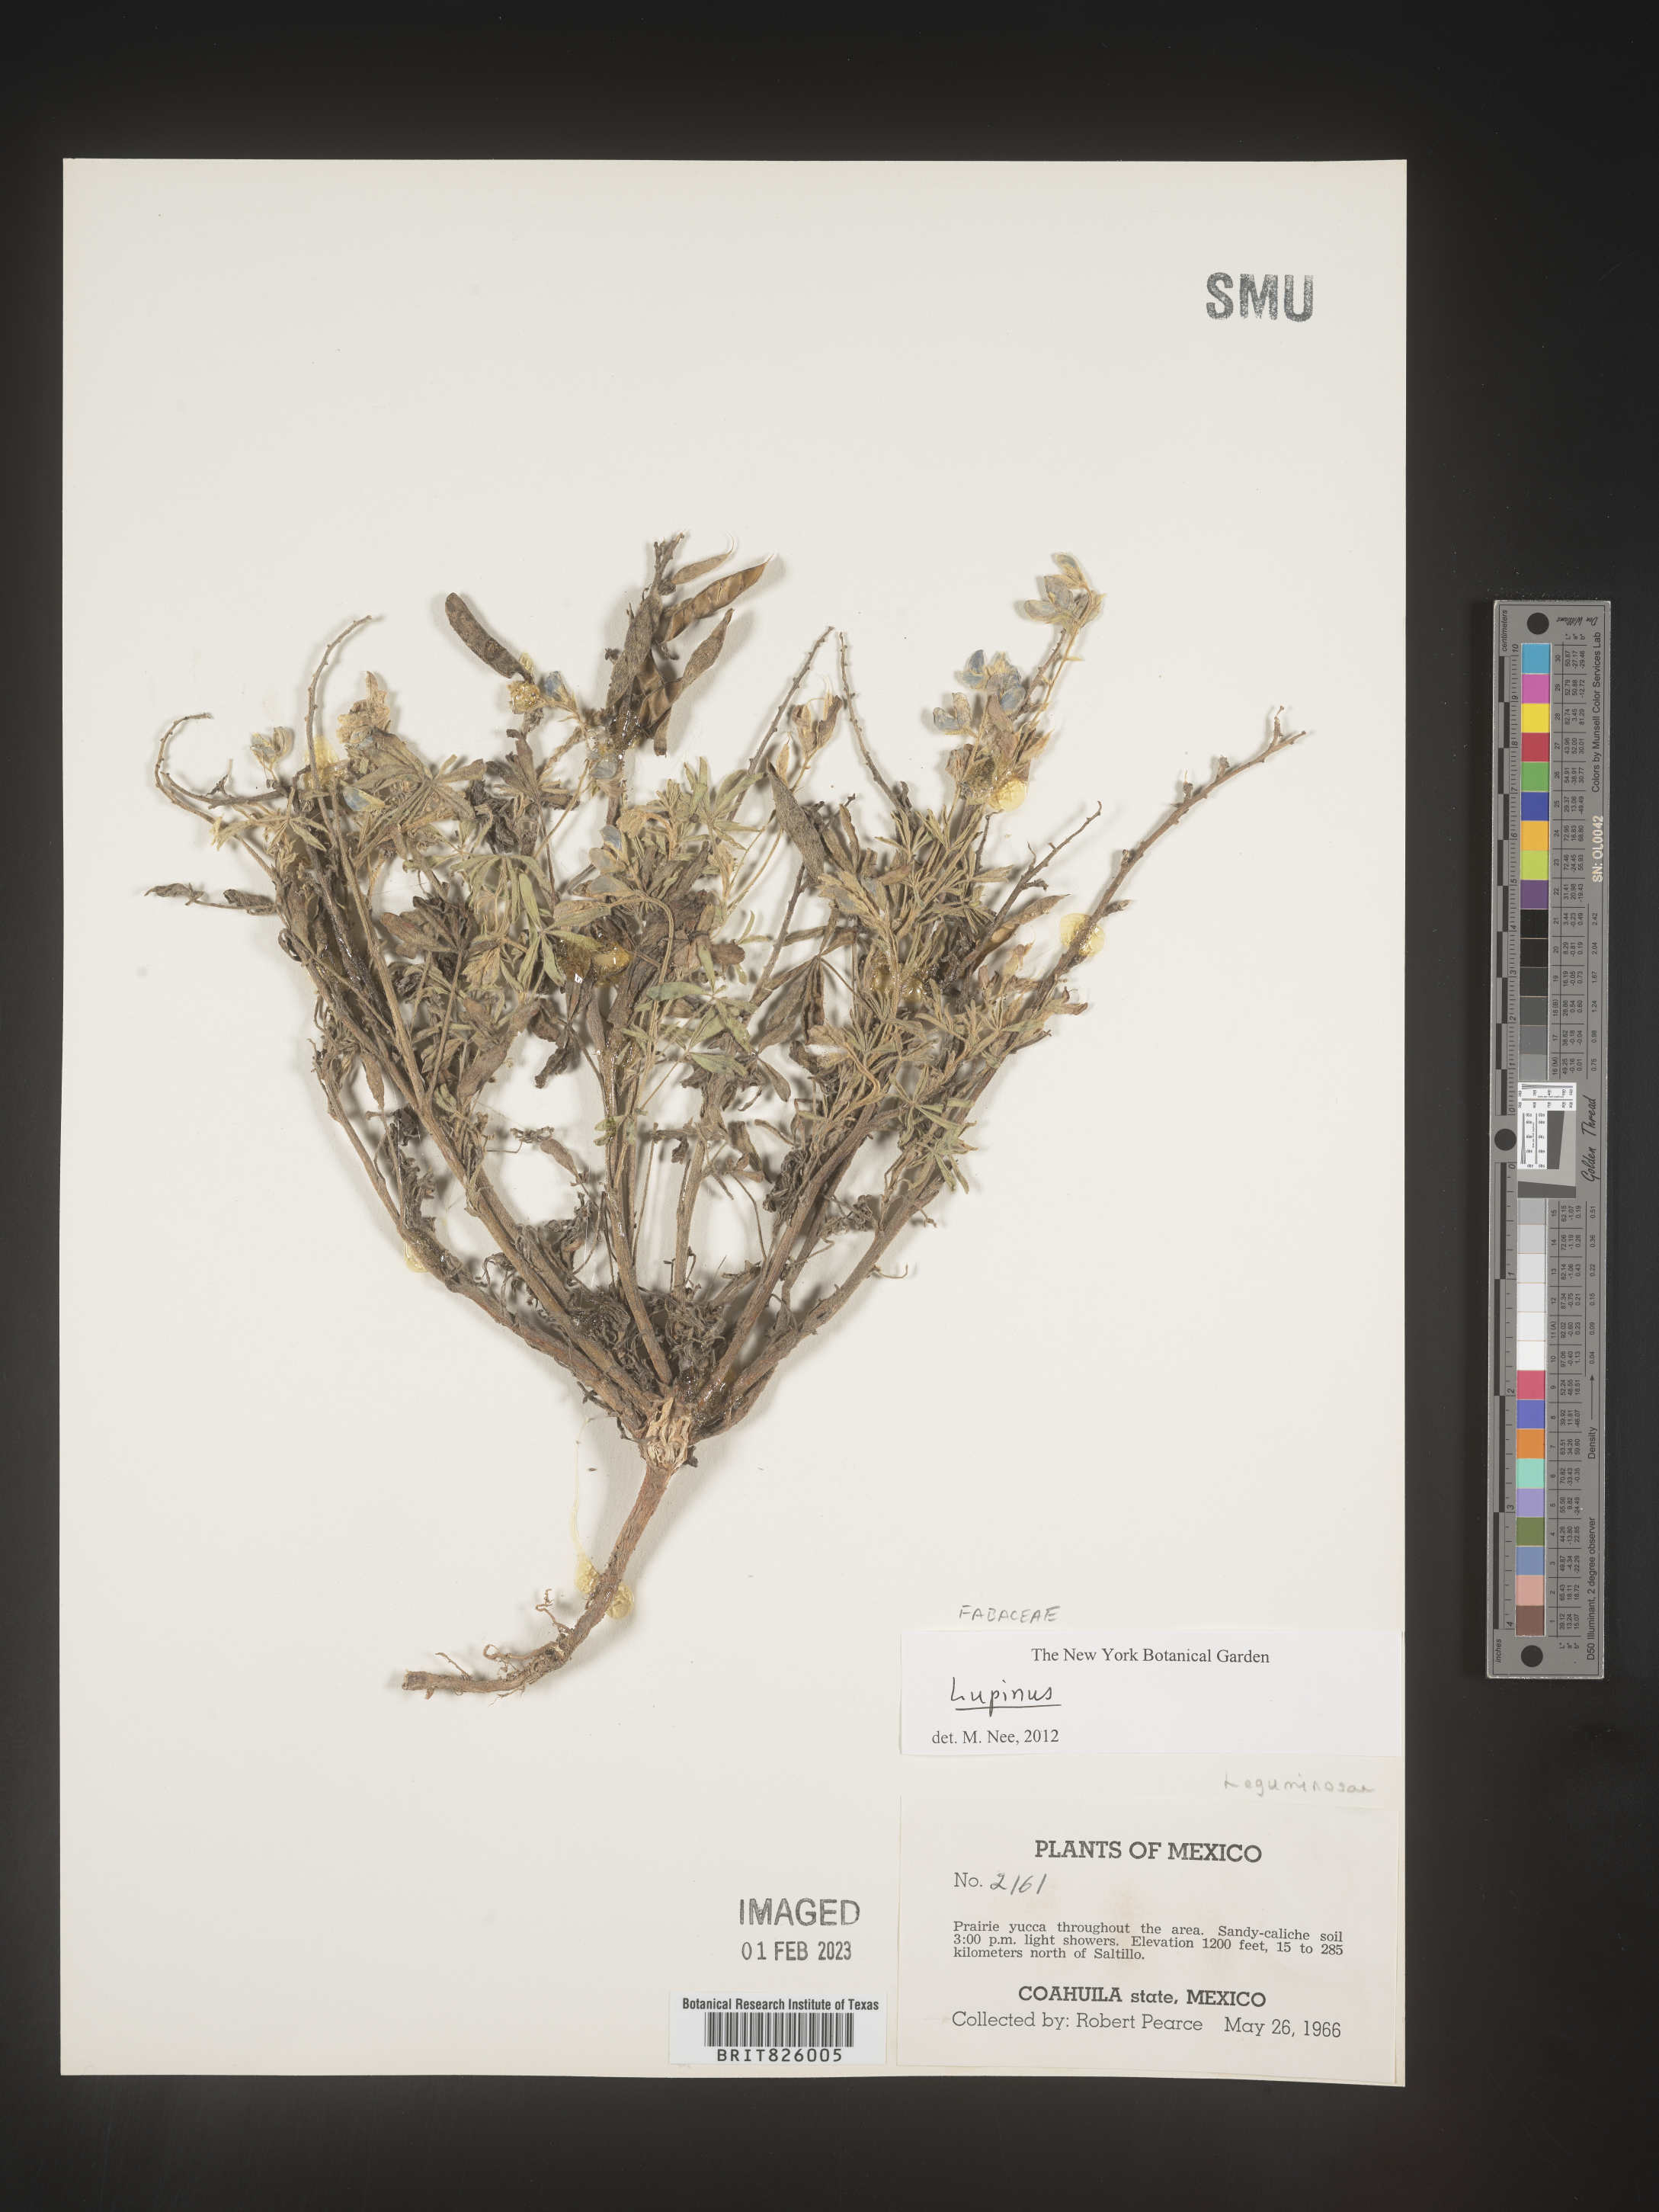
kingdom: Plantae
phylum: Tracheophyta
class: Magnoliopsida
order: Fabales
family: Fabaceae
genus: Lupinus
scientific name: Lupinus
